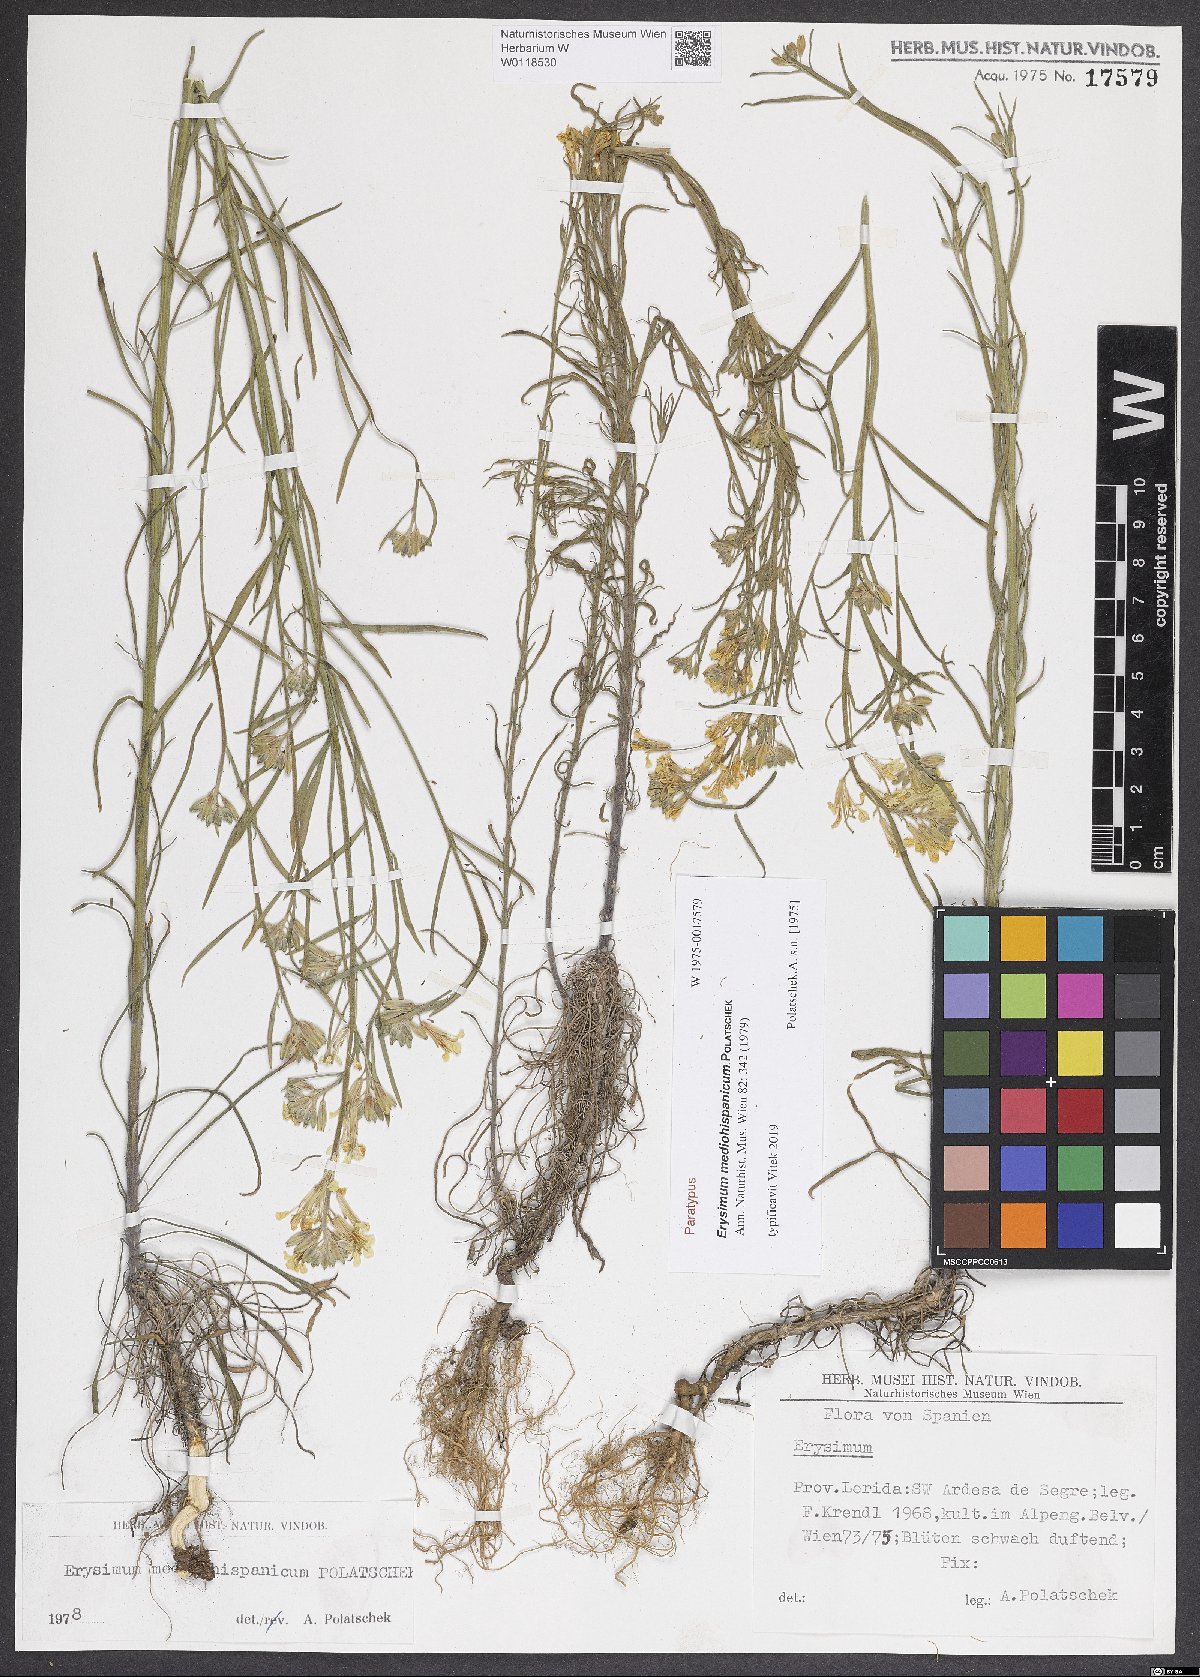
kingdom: Plantae
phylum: Tracheophyta
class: Magnoliopsida
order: Brassicales
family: Brassicaceae
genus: Erysimum
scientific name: Erysimum nevadense
